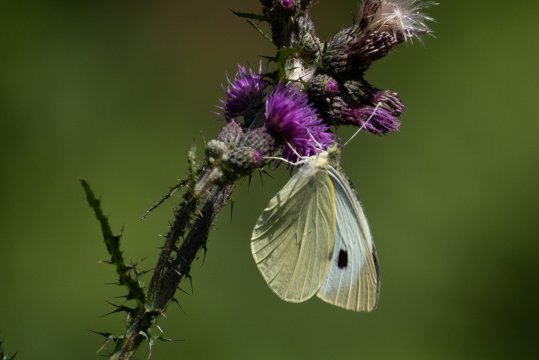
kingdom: Animalia
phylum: Arthropoda
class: Insecta
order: Lepidoptera
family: Pieridae
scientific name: Pieridae
